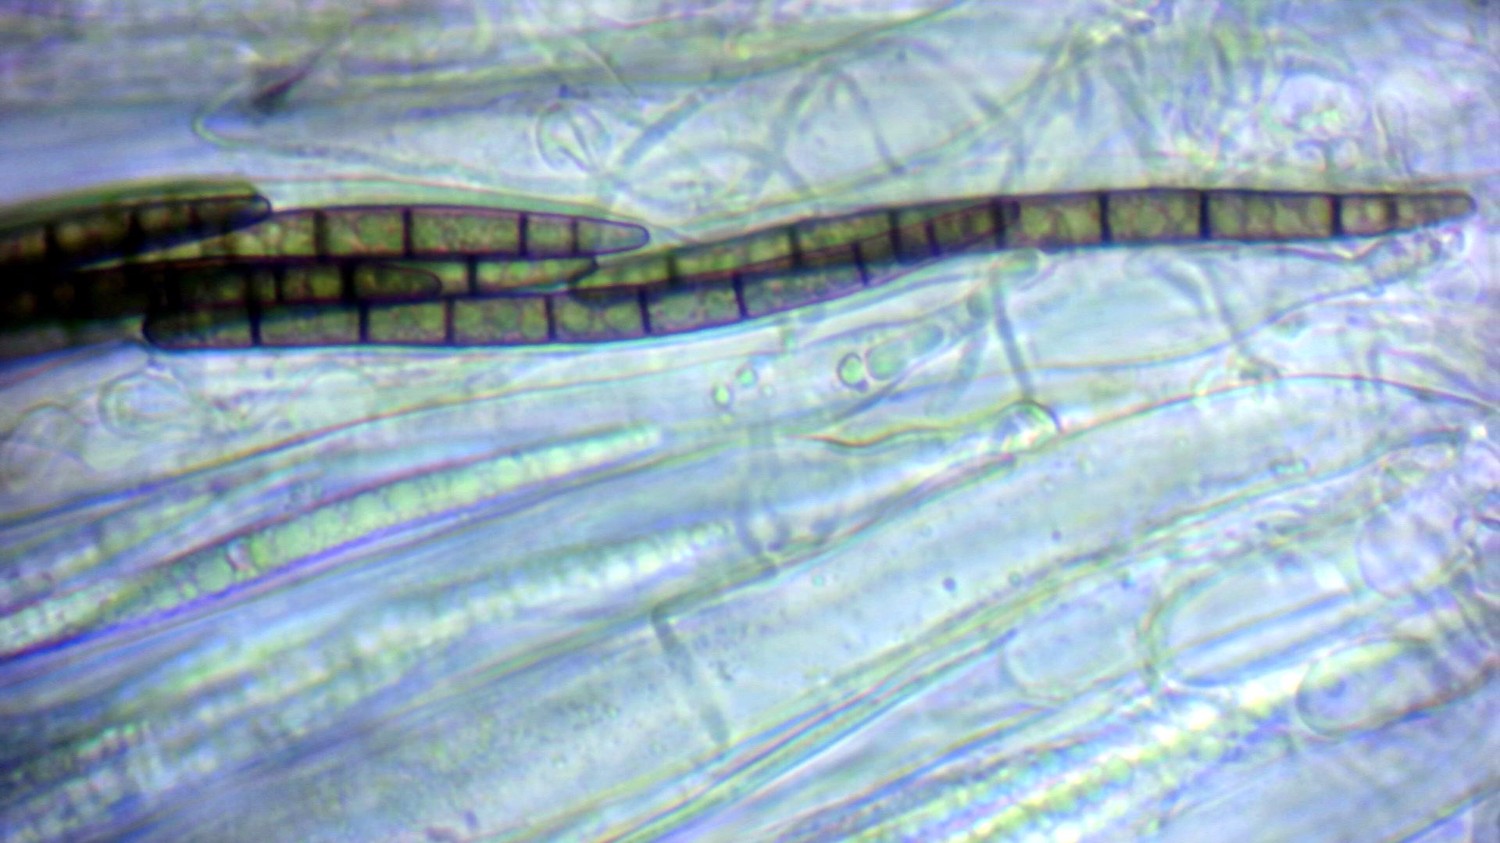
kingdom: Fungi
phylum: Ascomycota
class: Geoglossomycetes
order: Geoglossales
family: Geoglossaceae
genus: Hemileucoglossum
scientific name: Hemileucoglossum elongatum
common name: småsporet jordtunge
